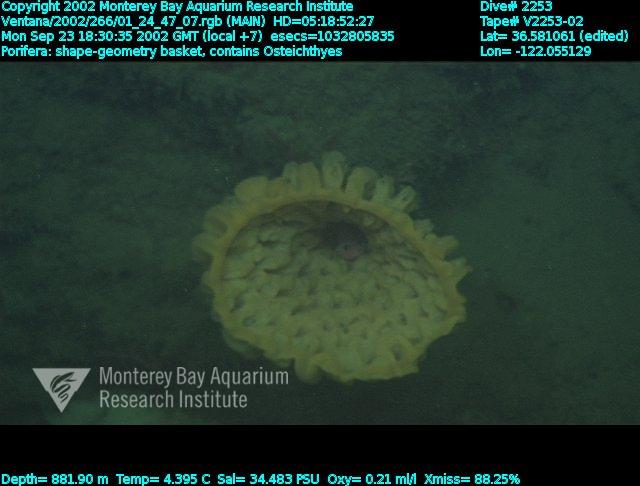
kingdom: Animalia
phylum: Porifera
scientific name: Porifera
